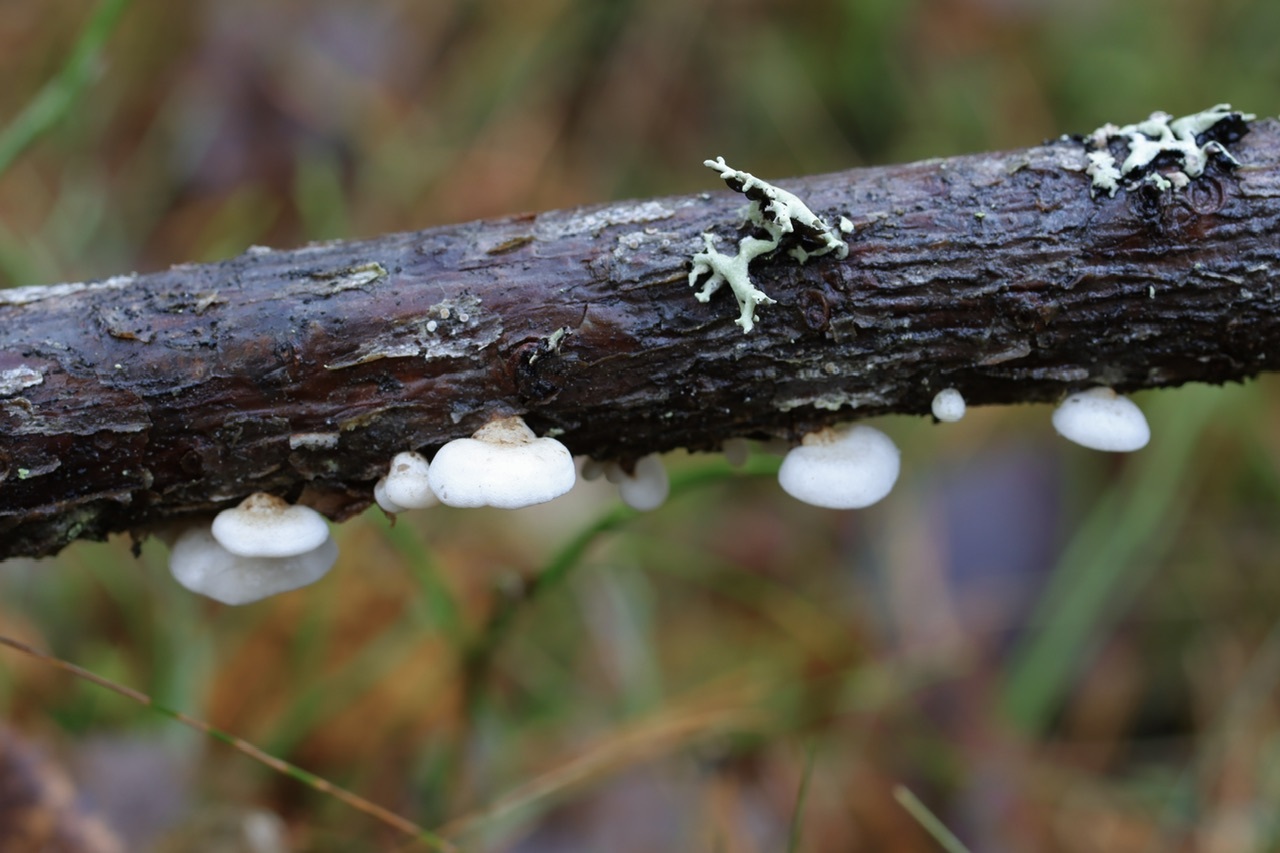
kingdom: Fungi
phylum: Basidiomycota
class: Agaricomycetes
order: Agaricales
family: Mycenaceae
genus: Panellus
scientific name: Panellus mitis
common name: Elastic oysterling
